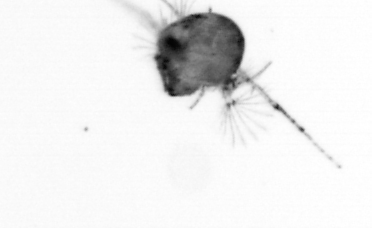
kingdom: Animalia
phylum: Arthropoda
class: Copepoda
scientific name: Copepoda
